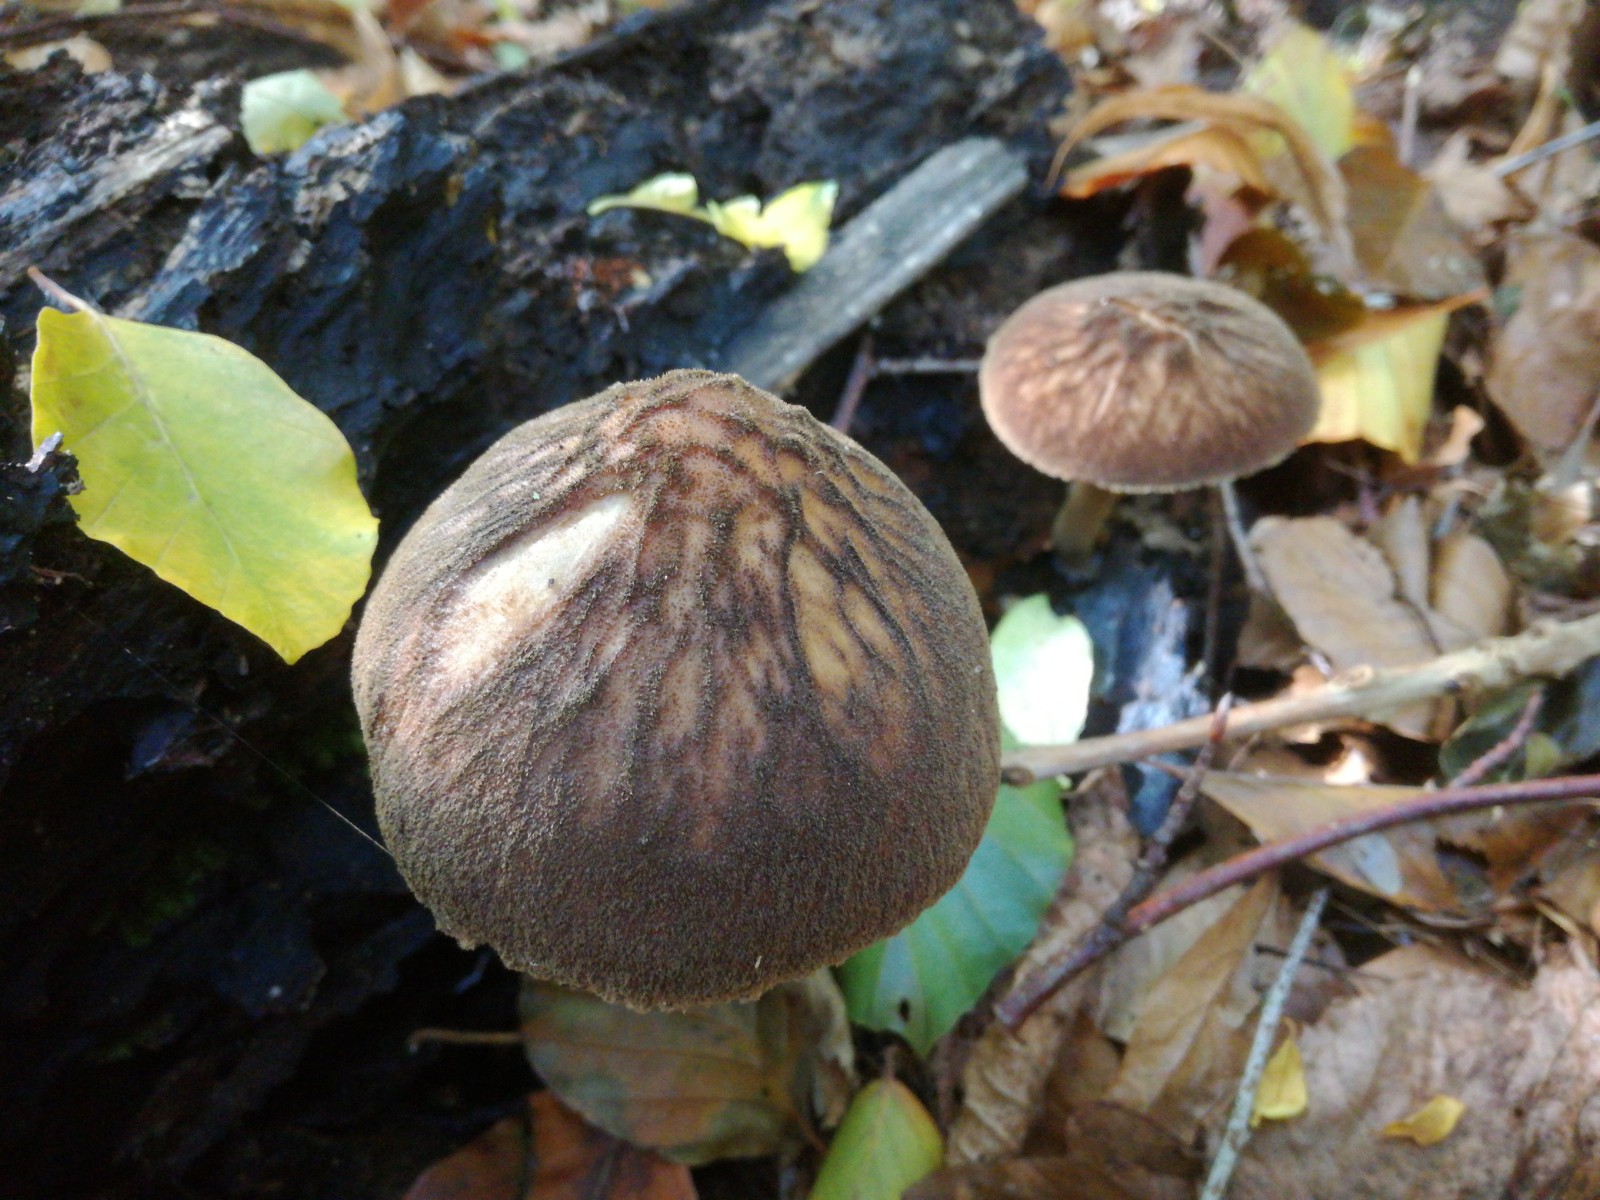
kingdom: Fungi
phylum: Basidiomycota
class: Agaricomycetes
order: Agaricales
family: Pluteaceae
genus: Pluteus
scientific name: Pluteus umbrosus
